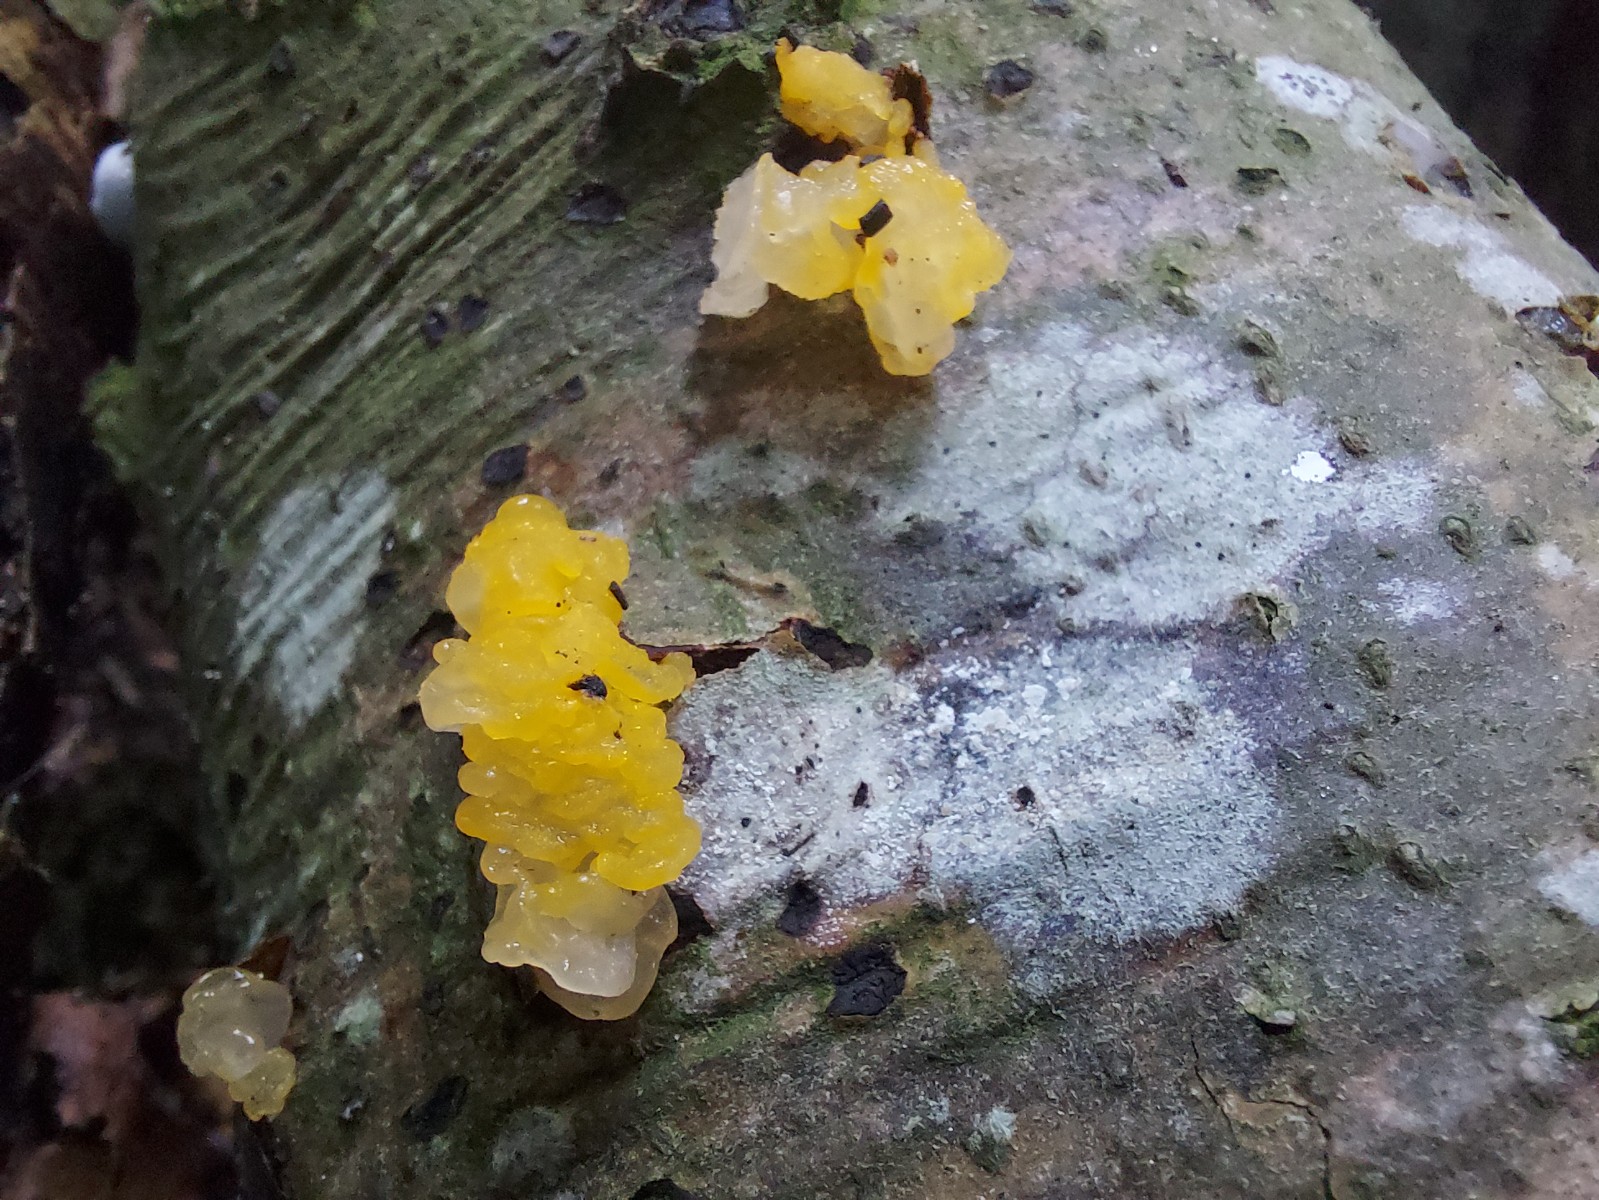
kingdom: Fungi
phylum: Basidiomycota
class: Tremellomycetes
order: Tremellales
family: Tremellaceae
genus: Tremella
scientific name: Tremella mesenterica
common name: gul bævresvamp
